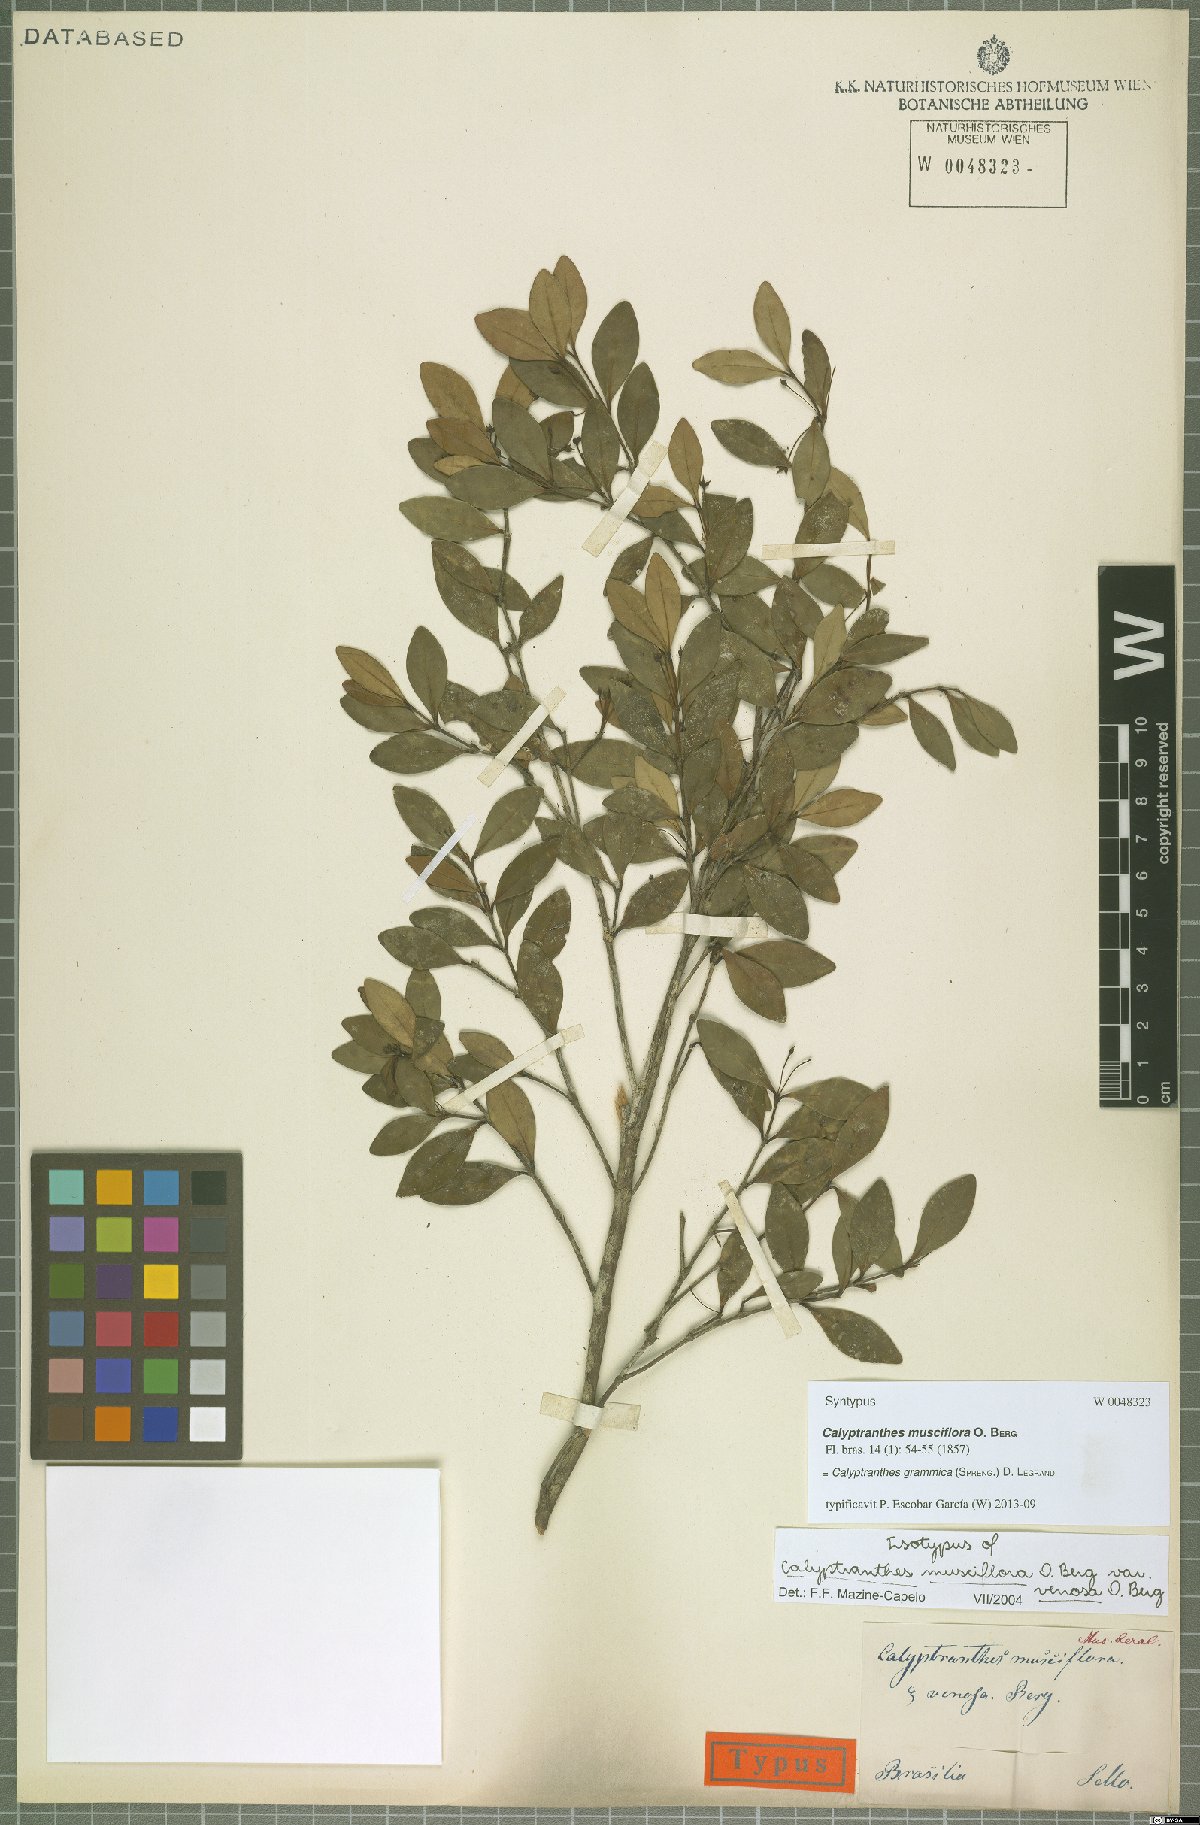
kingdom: Plantae
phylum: Tracheophyta
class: Magnoliopsida
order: Myrtales
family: Myrtaceae
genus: Myrcia
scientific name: Myrcia grammica
